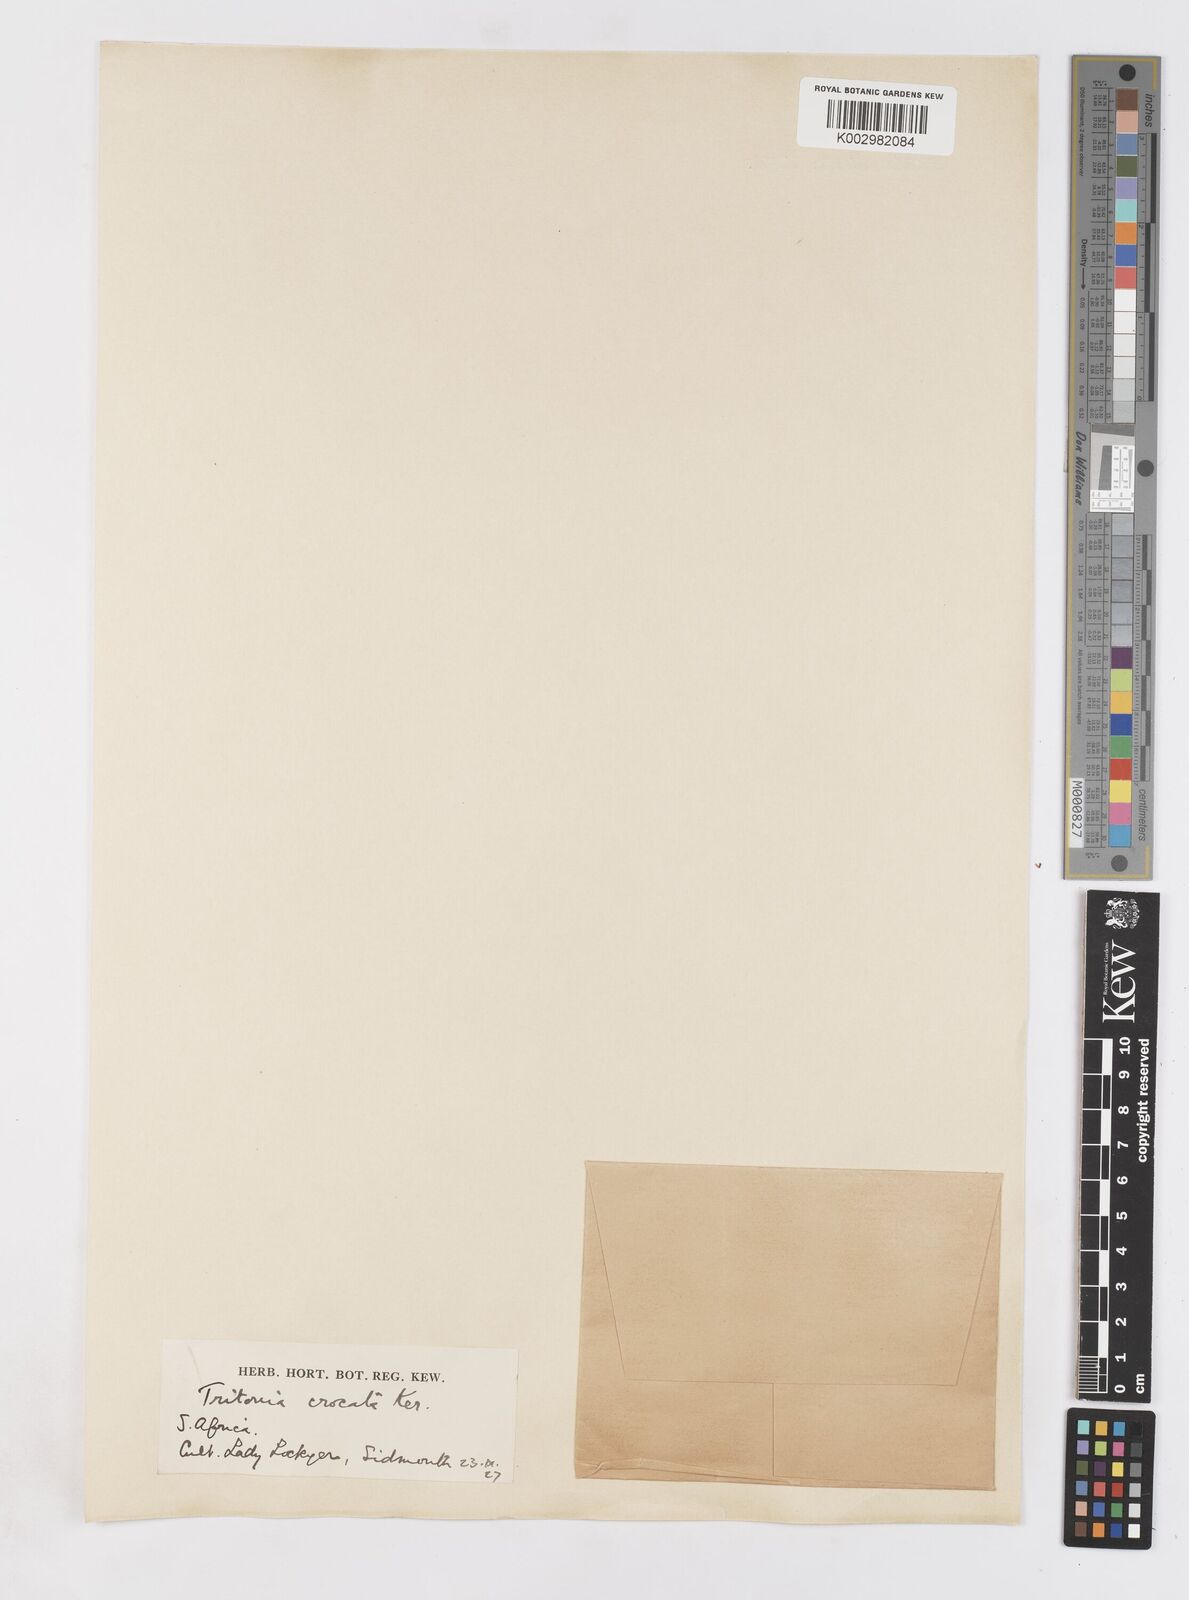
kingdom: Plantae
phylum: Tracheophyta
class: Liliopsida
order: Asparagales
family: Iridaceae
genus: Tritonia
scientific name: Tritonia crocata
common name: Flame-freesia
